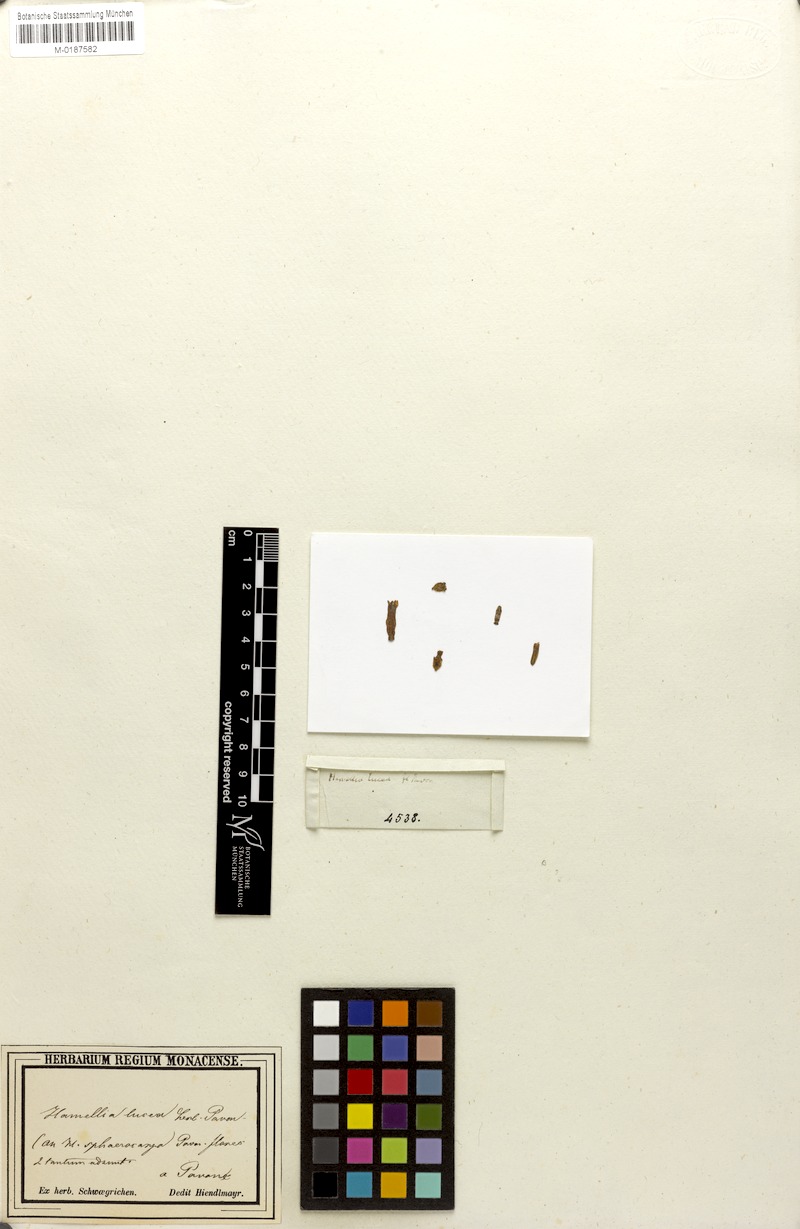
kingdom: Plantae
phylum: Tracheophyta
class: Magnoliopsida
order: Gentianales
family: Rubiaceae
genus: Hamelia
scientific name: Hamelia
